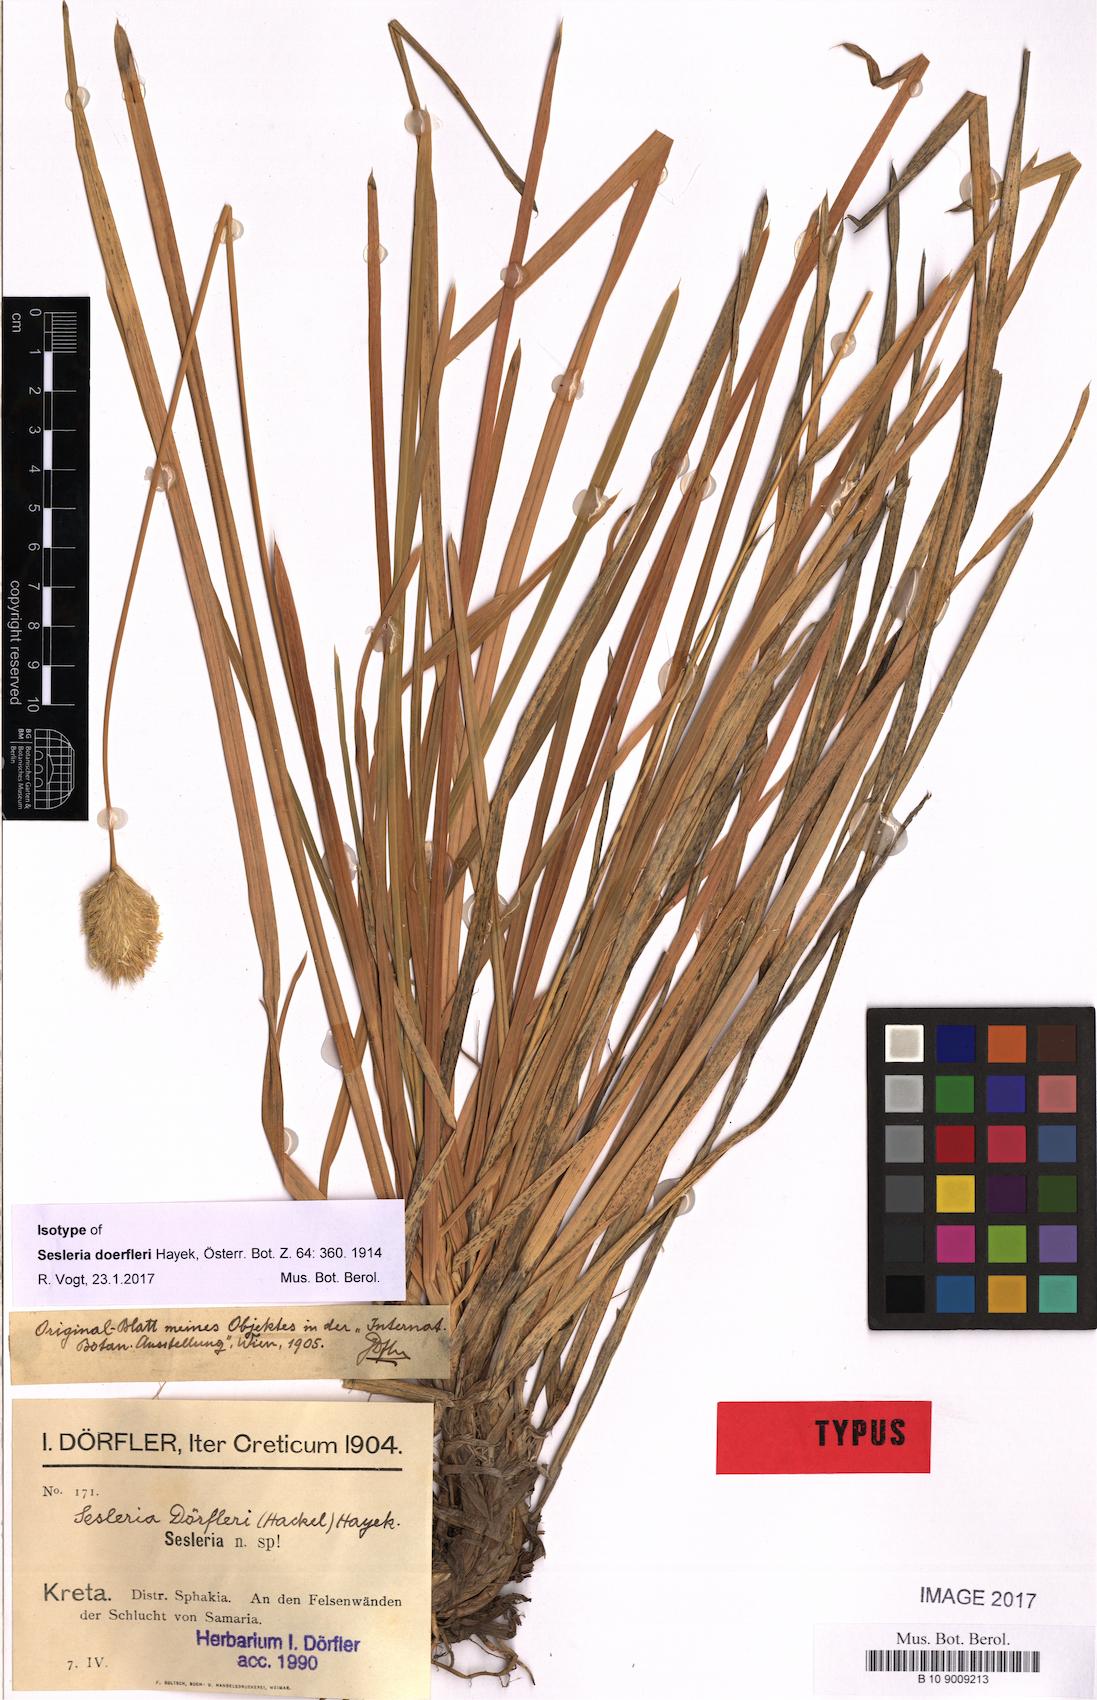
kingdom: Plantae
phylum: Tracheophyta
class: Liliopsida
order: Poales
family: Poaceae
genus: Sesleria
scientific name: Sesleria doerfleri
